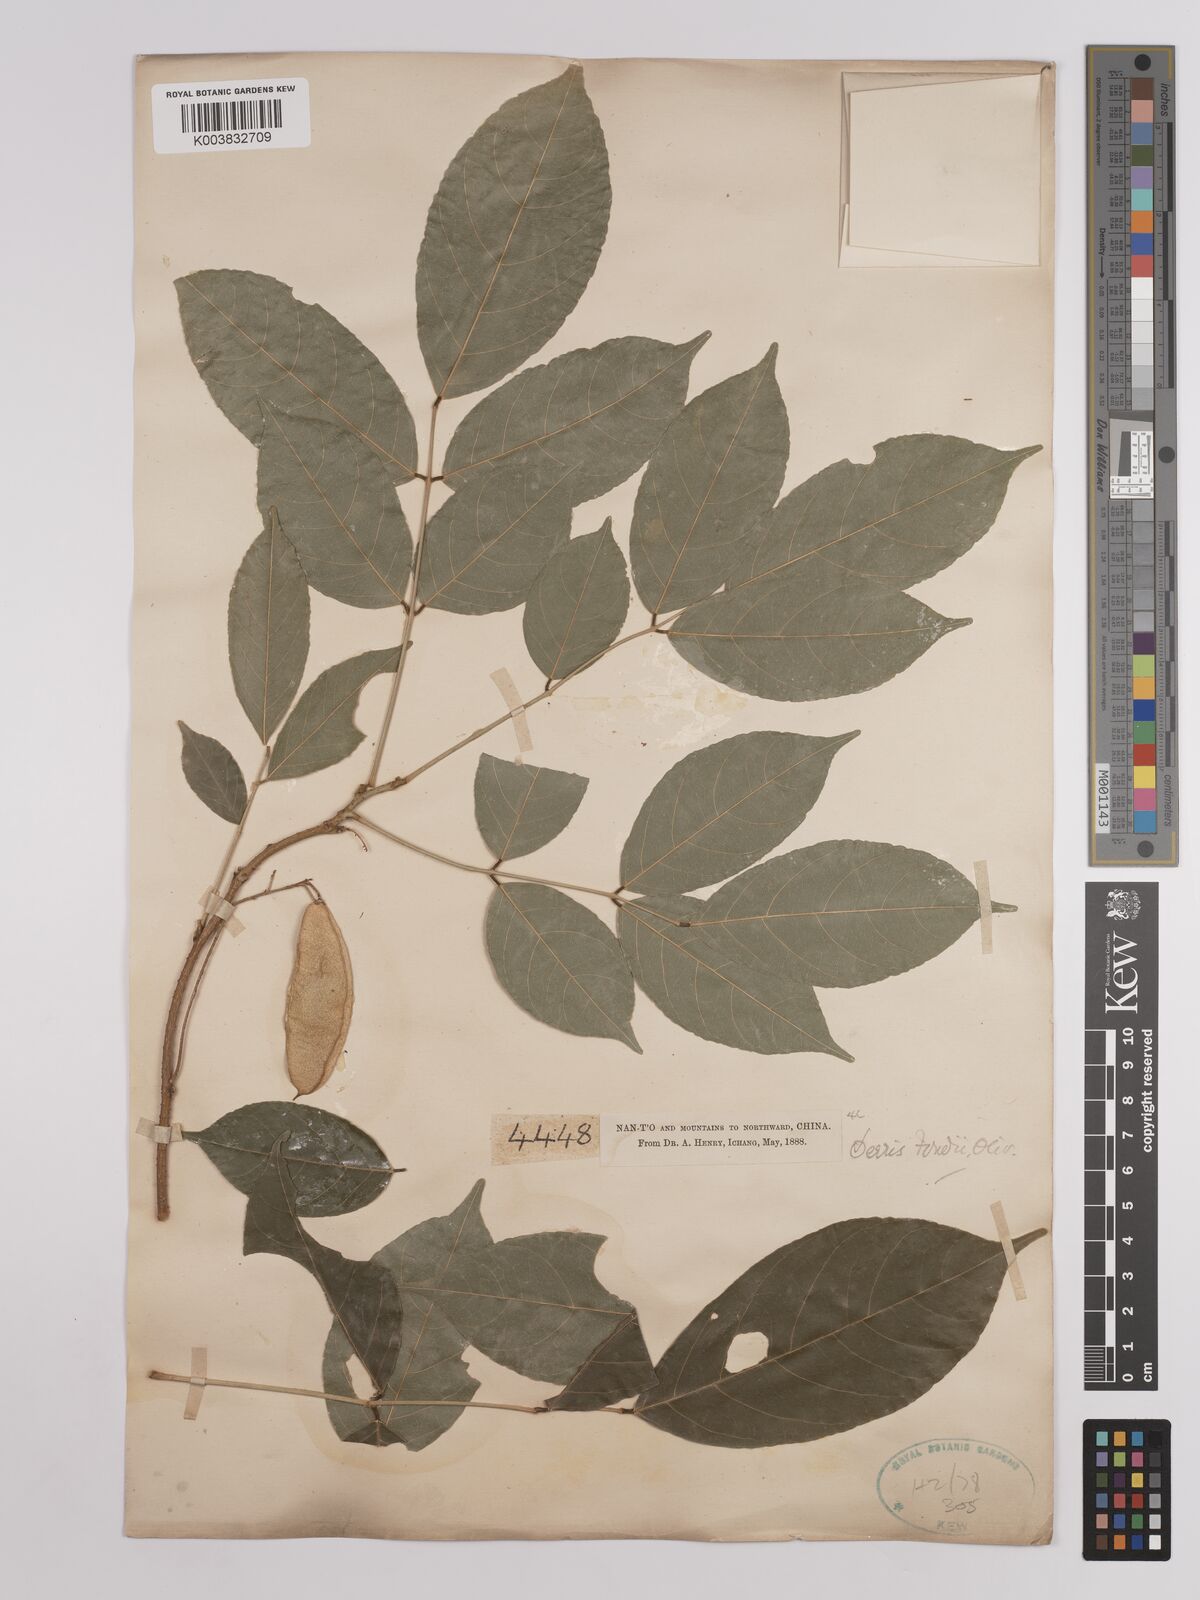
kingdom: Plantae
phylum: Tracheophyta
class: Magnoliopsida
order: Fabales
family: Fabaceae
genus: Derris
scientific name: Derris fordii
